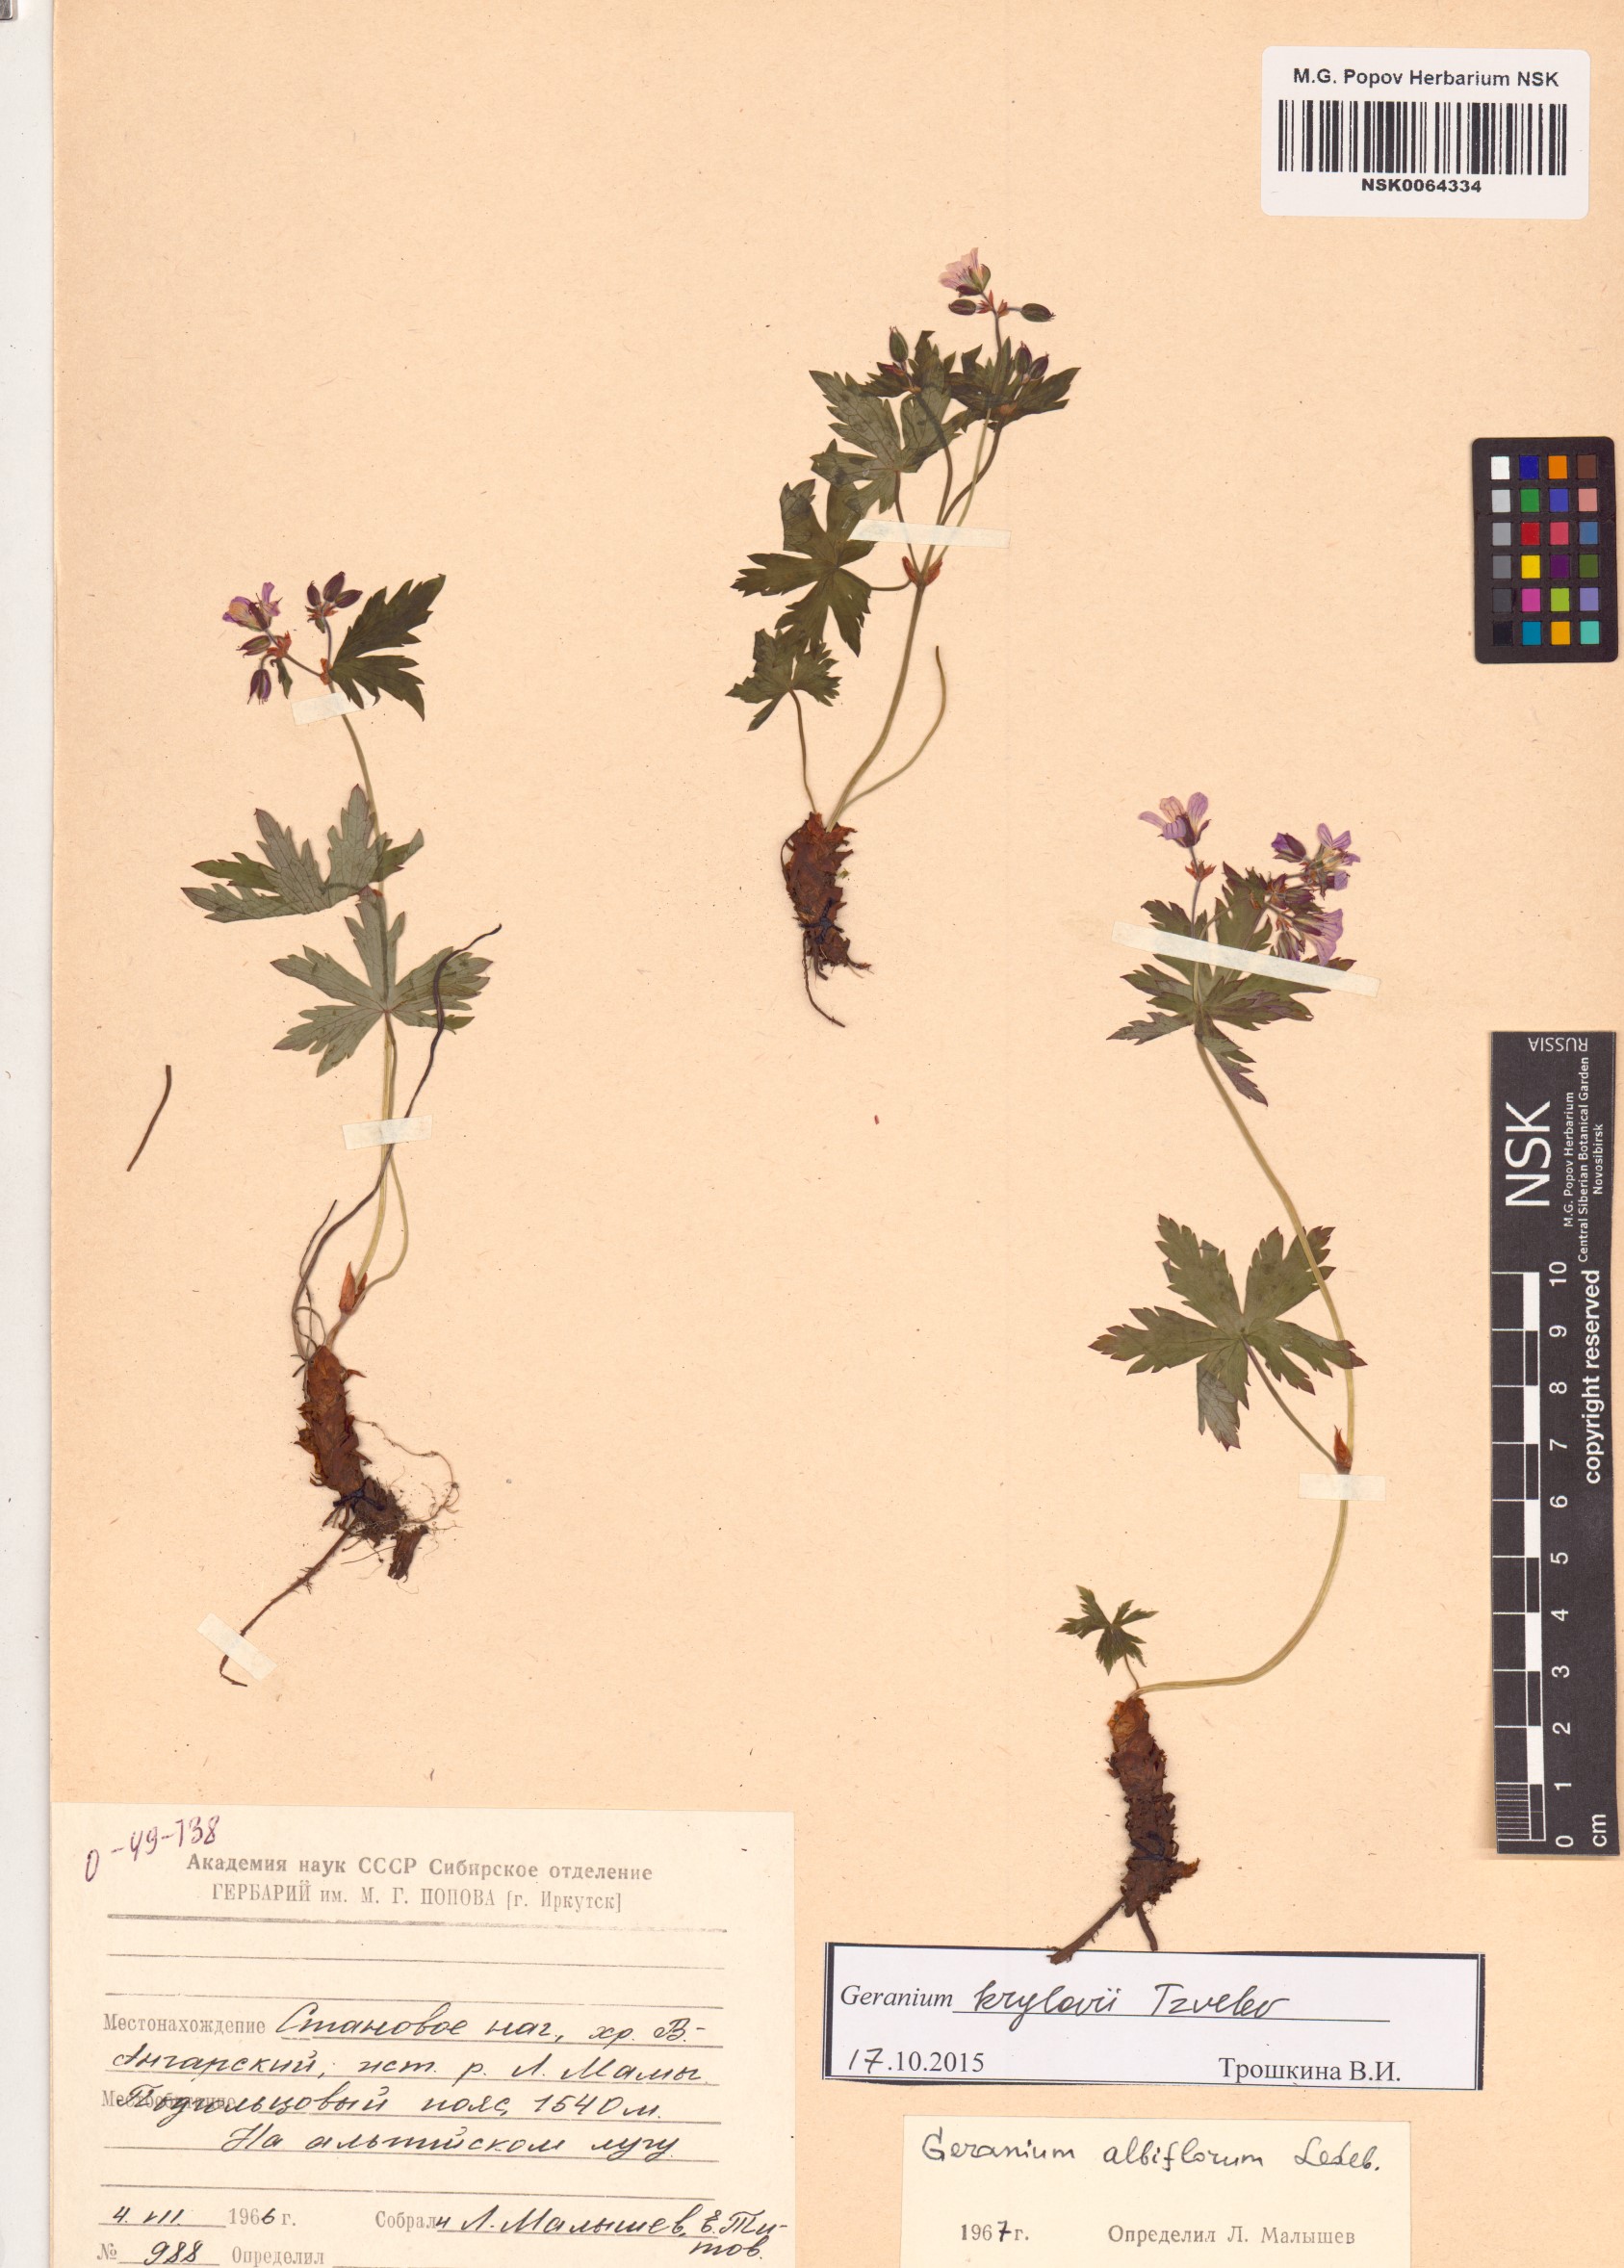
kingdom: Plantae
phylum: Tracheophyta
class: Magnoliopsida
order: Geraniales
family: Geraniaceae
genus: Geranium
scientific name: Geranium sylvaticum
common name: Wood crane's-bill
